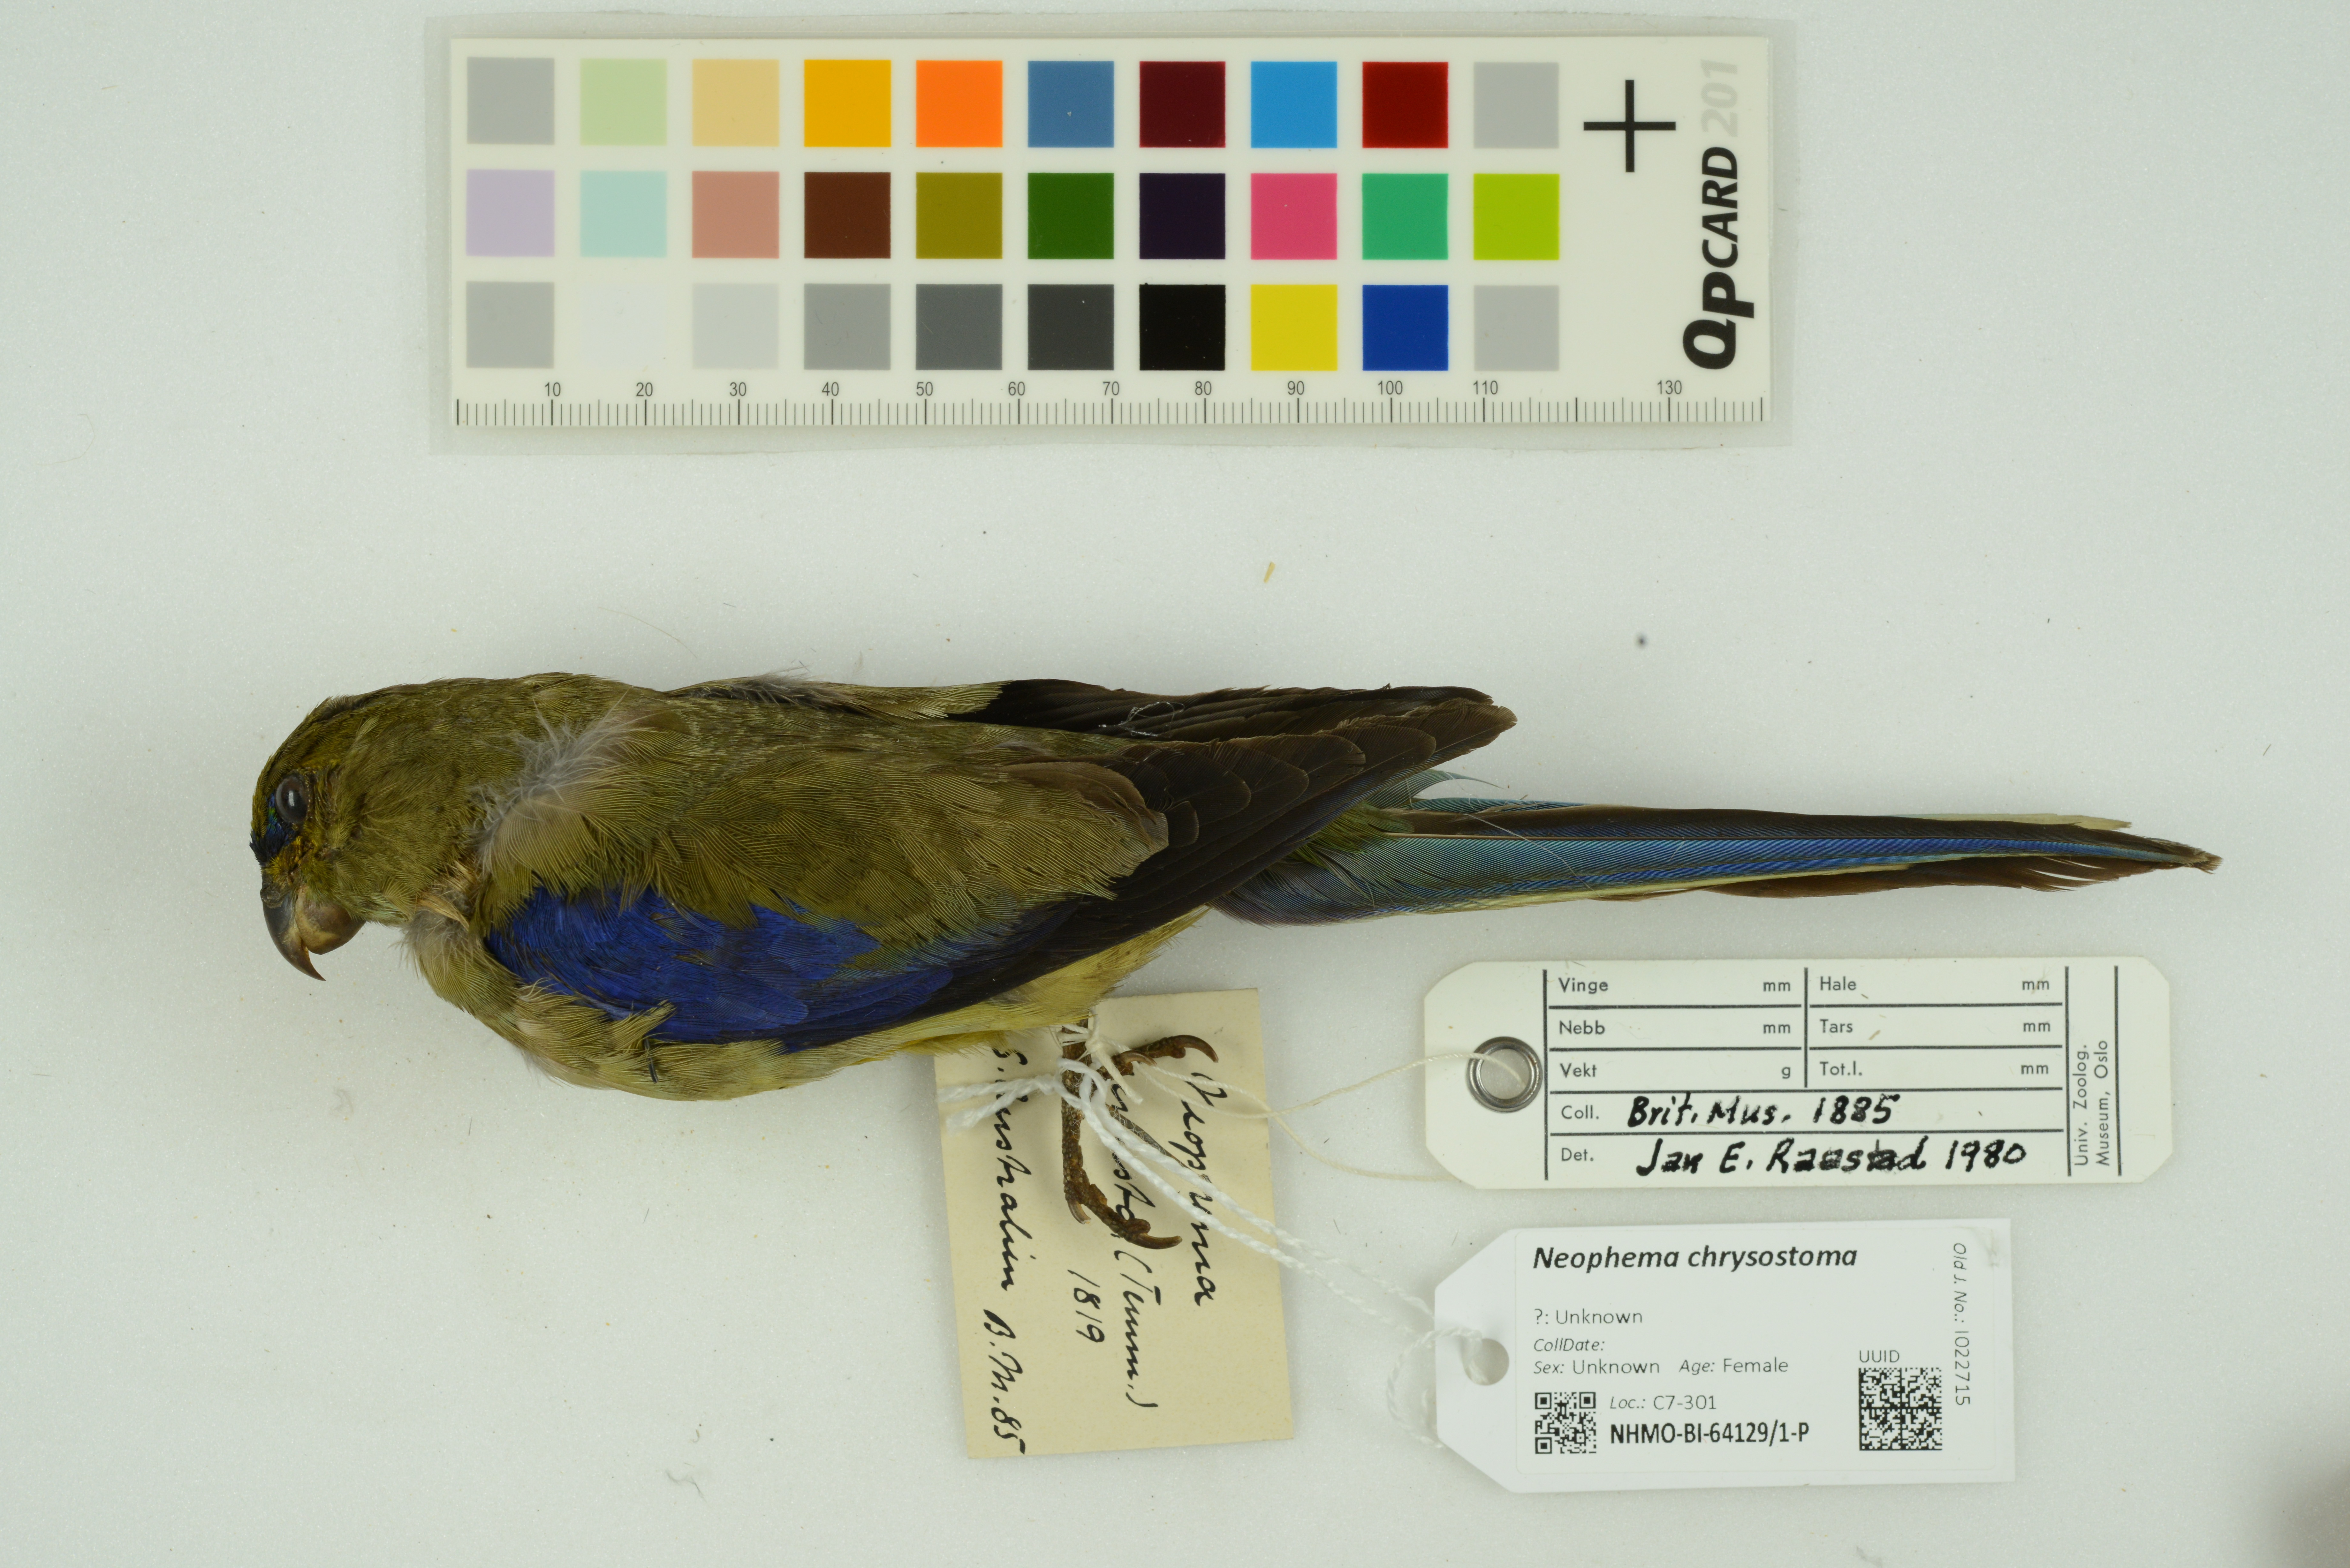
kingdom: Animalia
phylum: Chordata
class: Aves
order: Psittaciformes
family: Psittacidae
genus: Neophema
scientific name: Neophema chrysostoma
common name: Blue-winged parrot
